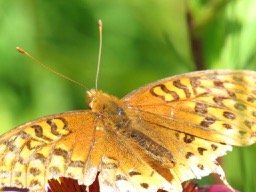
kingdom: Animalia
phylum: Arthropoda
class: Insecta
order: Lepidoptera
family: Nymphalidae
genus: Speyeria
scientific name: Speyeria cybele
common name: Great Spangled Fritillary
